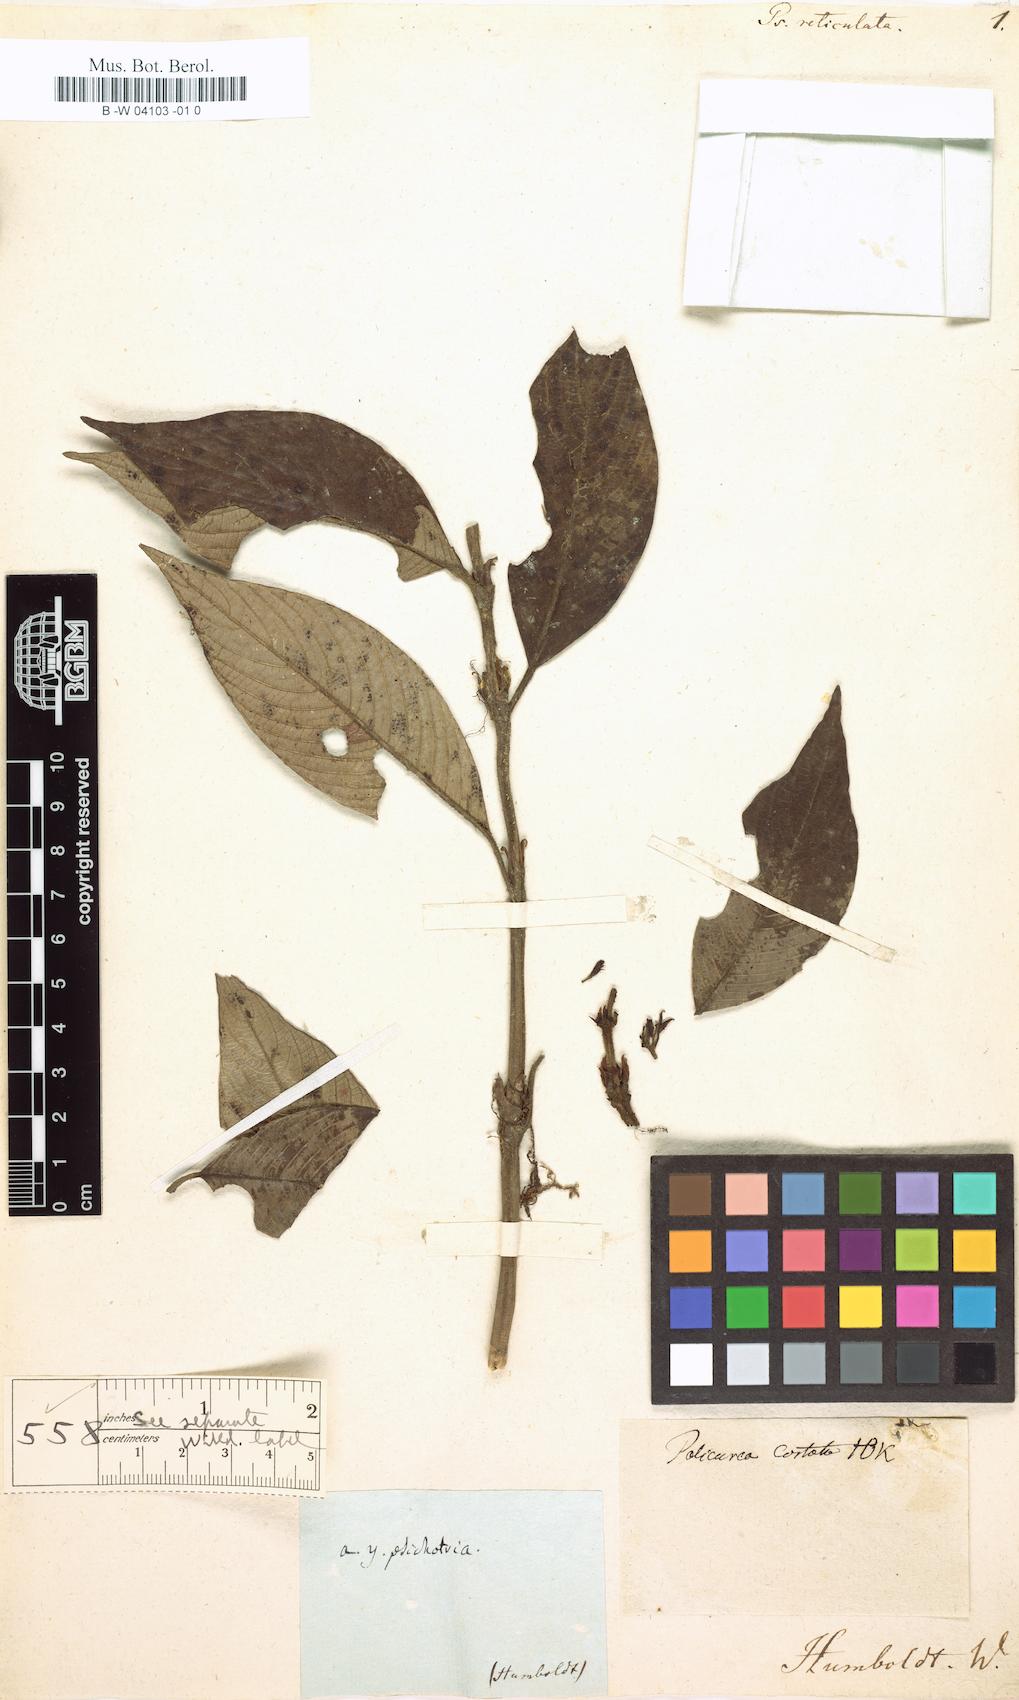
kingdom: Plantae
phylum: Tracheophyta
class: Magnoliopsida
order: Gentianales
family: Rubiaceae
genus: Palicourea
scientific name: Palicourea reticulata
